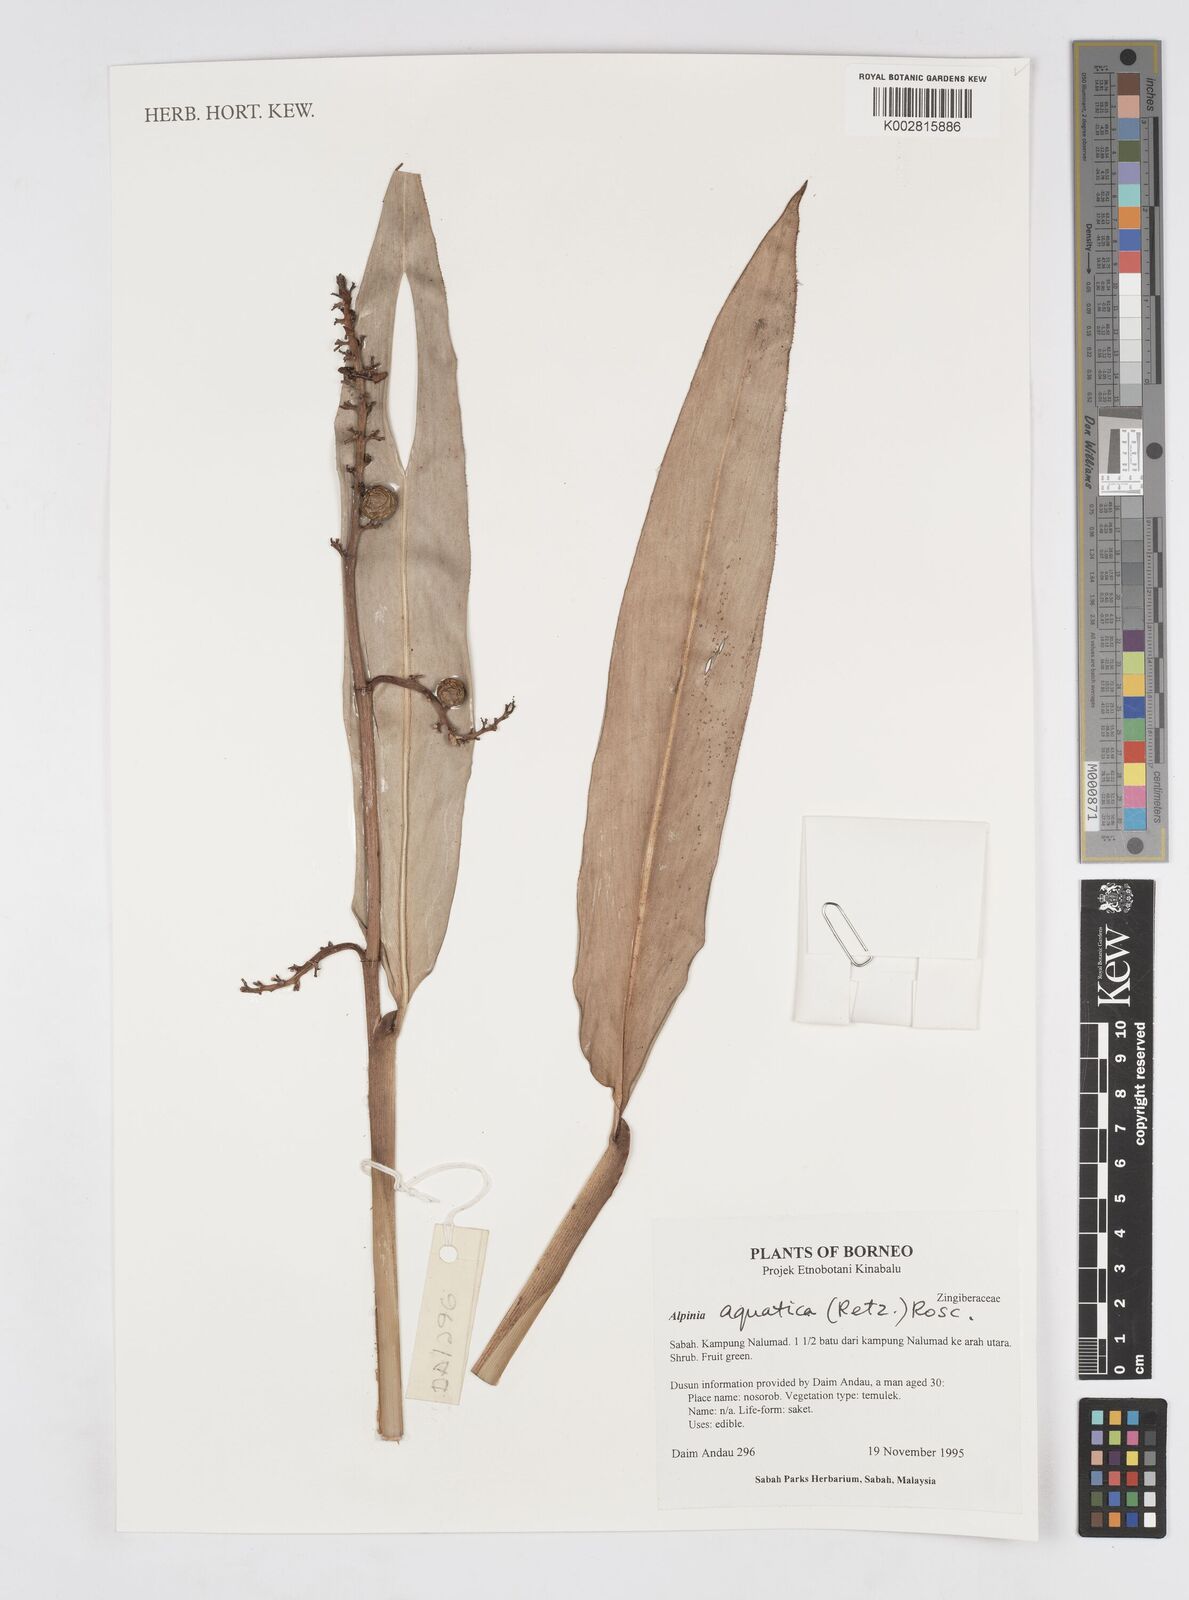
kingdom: Plantae
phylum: Tracheophyta
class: Liliopsida
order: Zingiberales
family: Zingiberaceae
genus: Alpinia
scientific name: Alpinia aquatica
